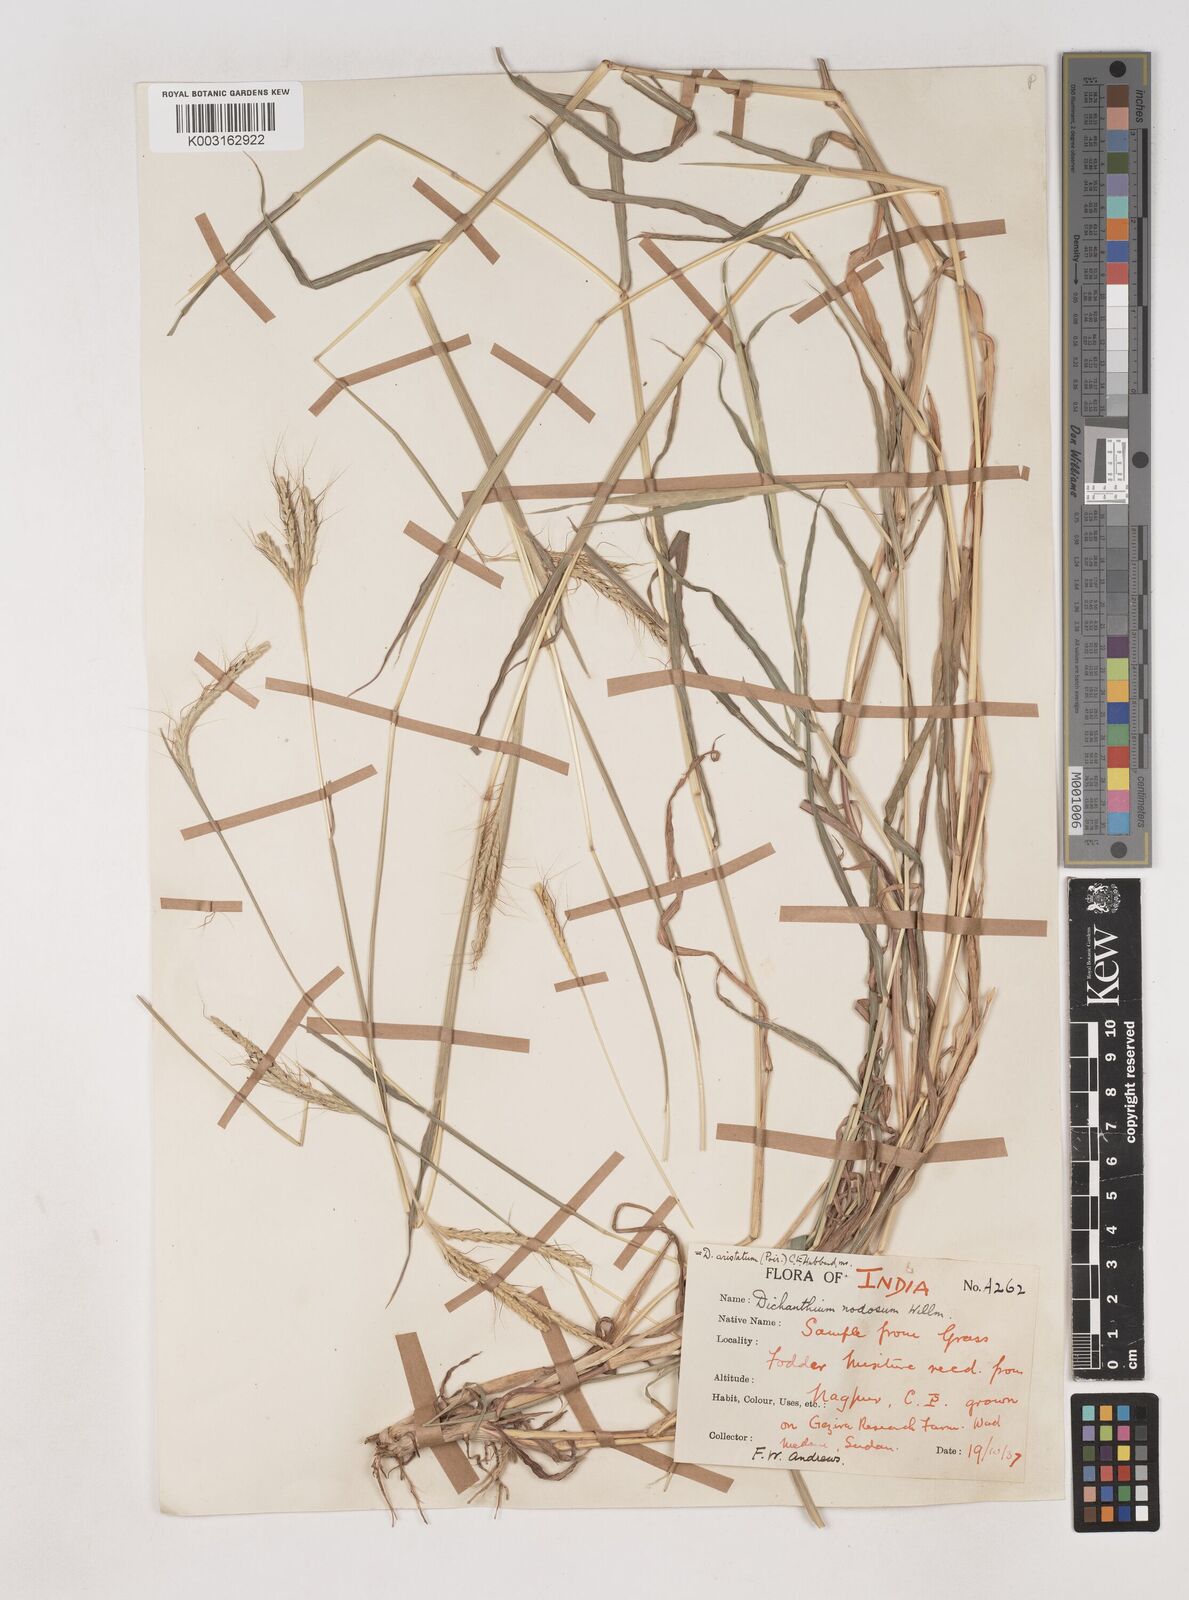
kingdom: Plantae
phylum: Tracheophyta
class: Liliopsida
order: Poales
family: Poaceae
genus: Dichanthium
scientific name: Dichanthium aristatum
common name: Angleton bluestem
